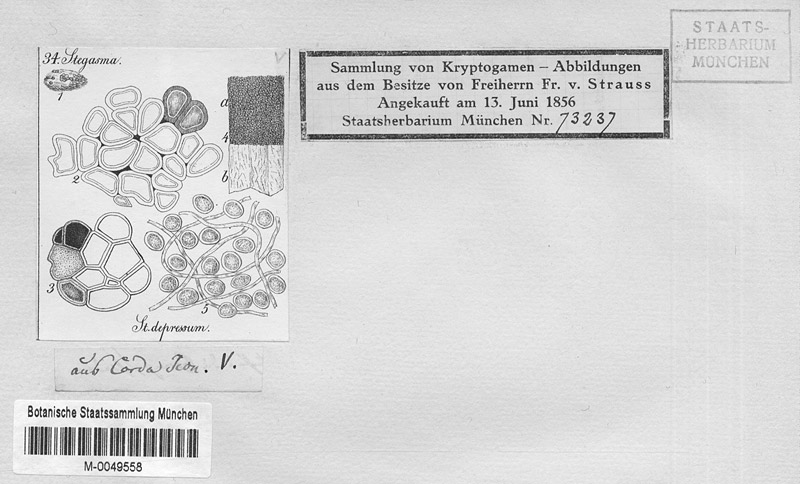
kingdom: Protozoa
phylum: Mycetozoa
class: Myxomycetes
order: Trichiales
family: Trichiaceae
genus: Perichaena
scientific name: Perichaena depressa
